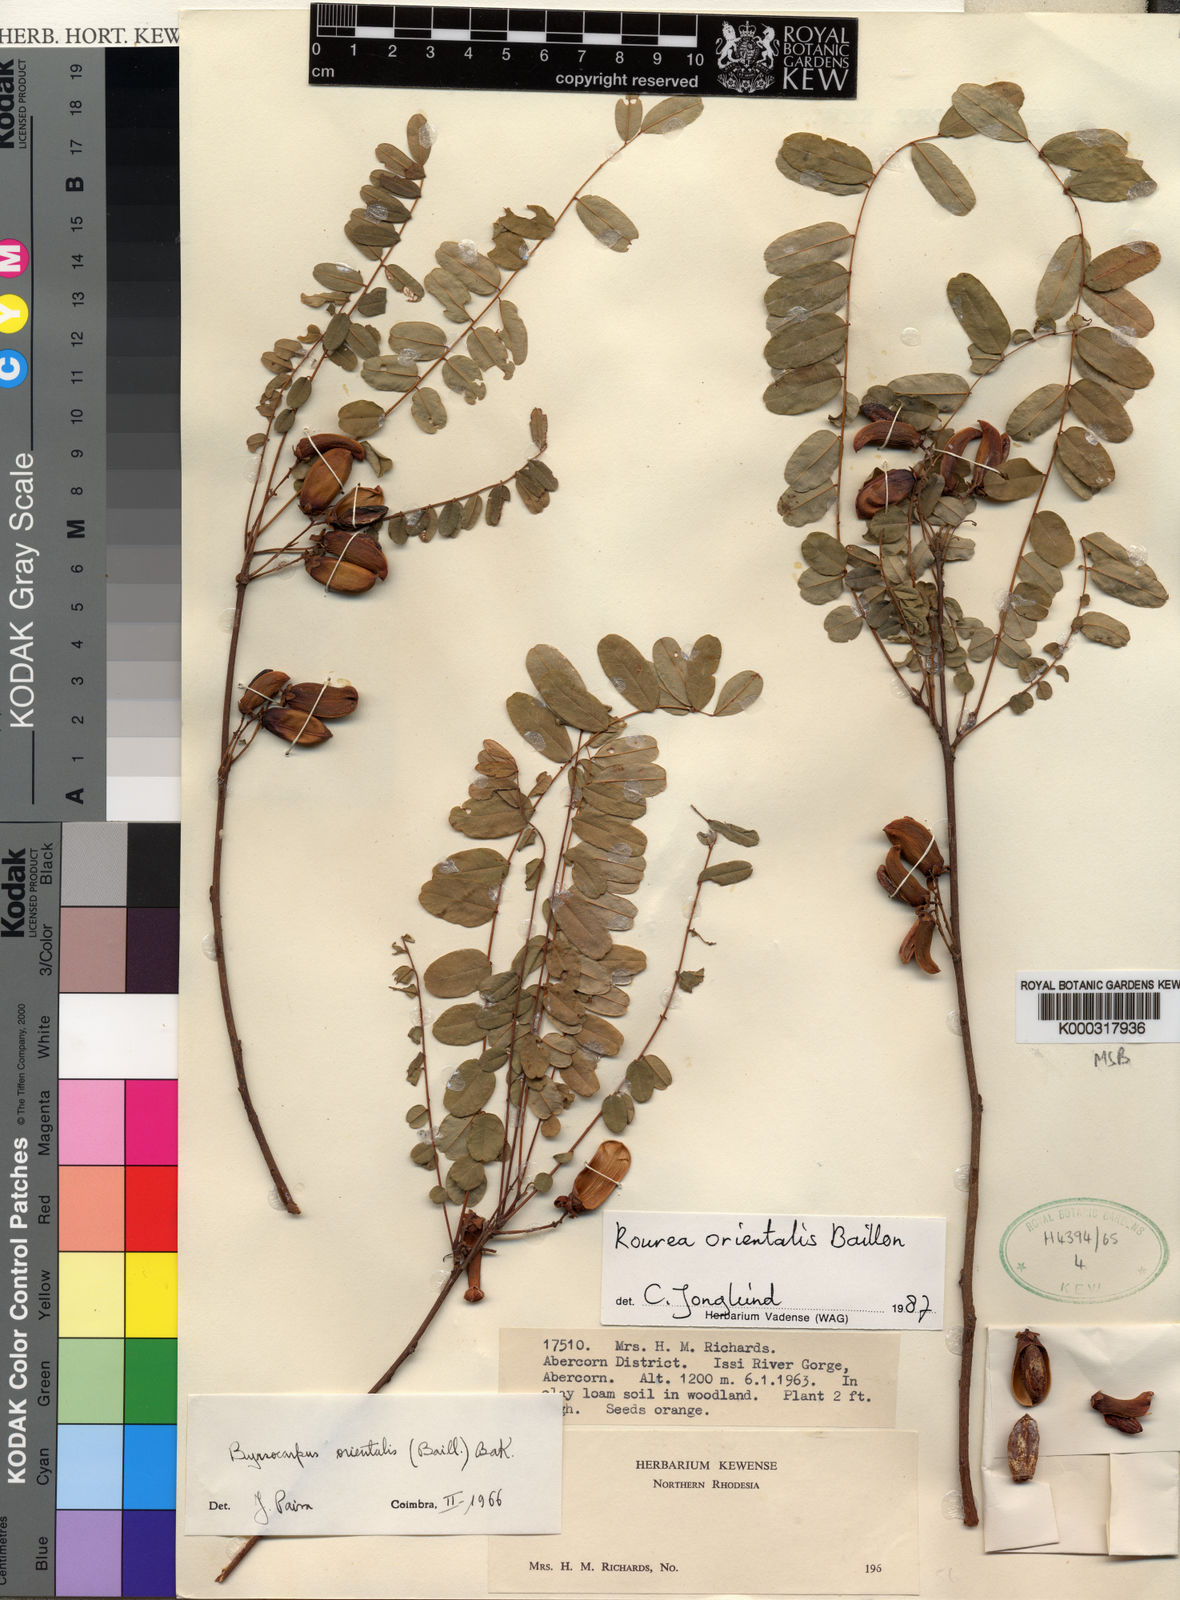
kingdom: Plantae
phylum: Tracheophyta
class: Magnoliopsida
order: Oxalidales
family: Connaraceae
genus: Rourea
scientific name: Rourea orientalis
